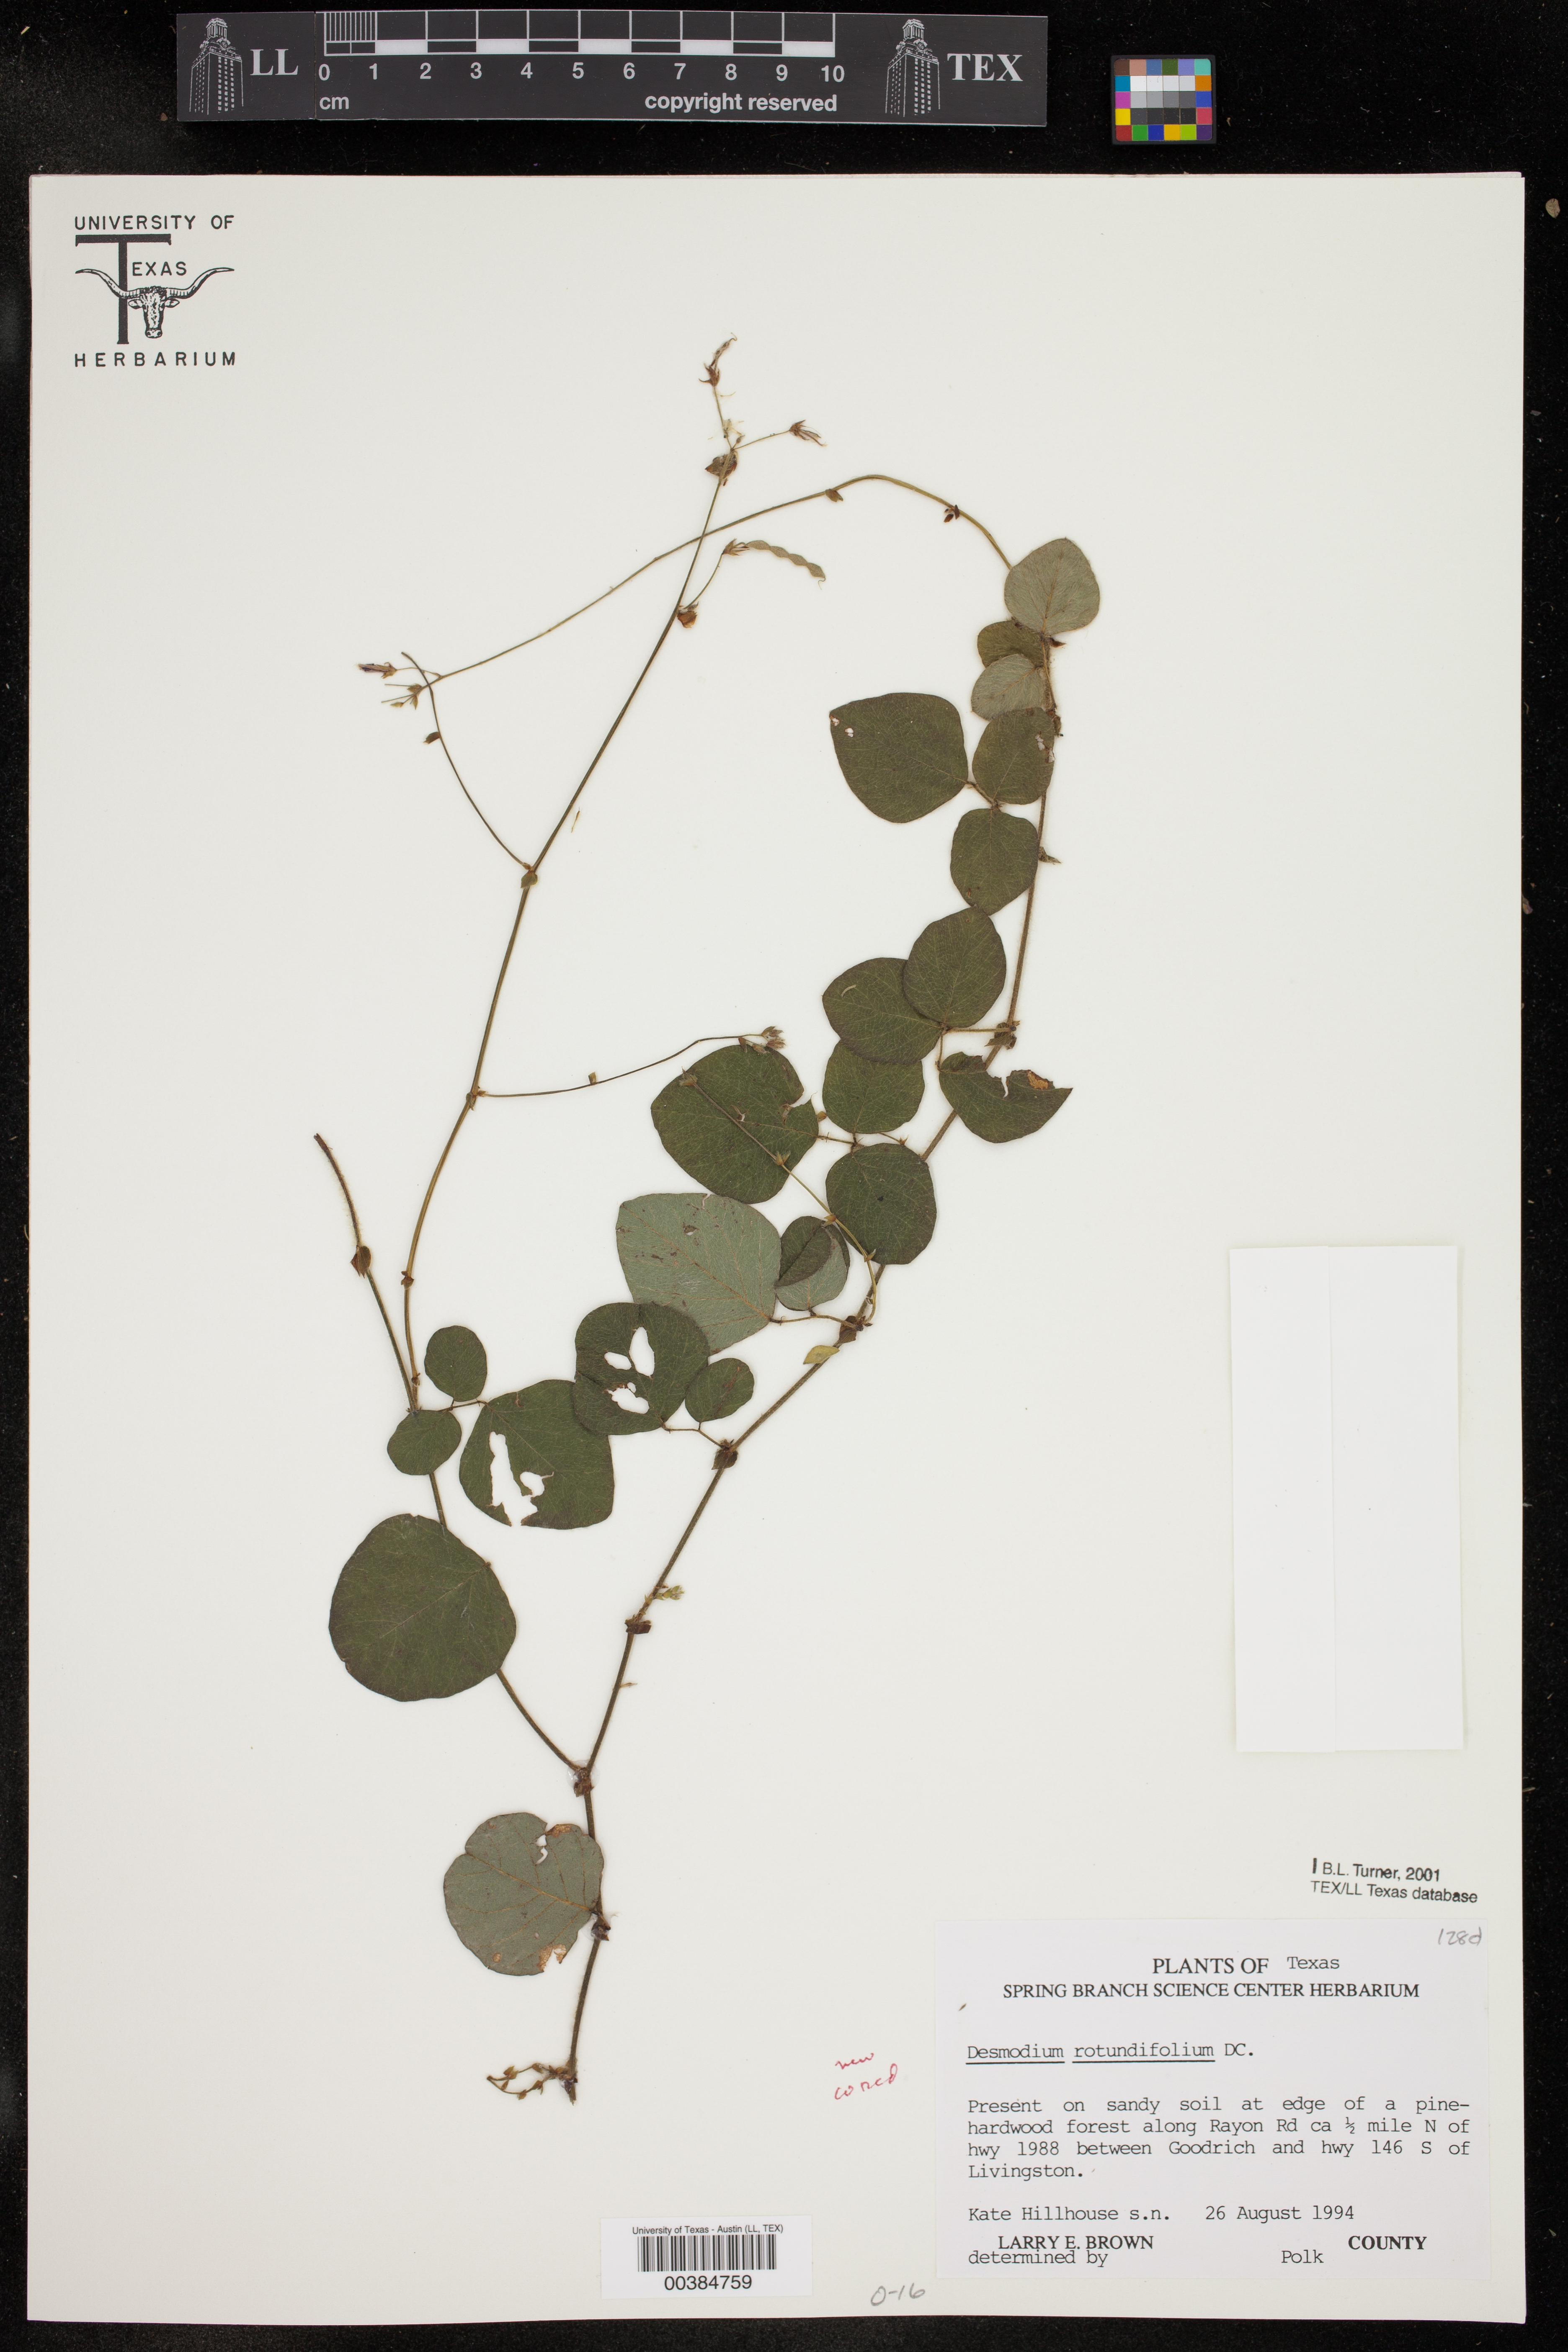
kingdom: Plantae
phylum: Tracheophyta
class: Magnoliopsida
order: Fabales
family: Fabaceae
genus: Desmodium
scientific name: Desmodium rotundifolium
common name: Dollarleaf
